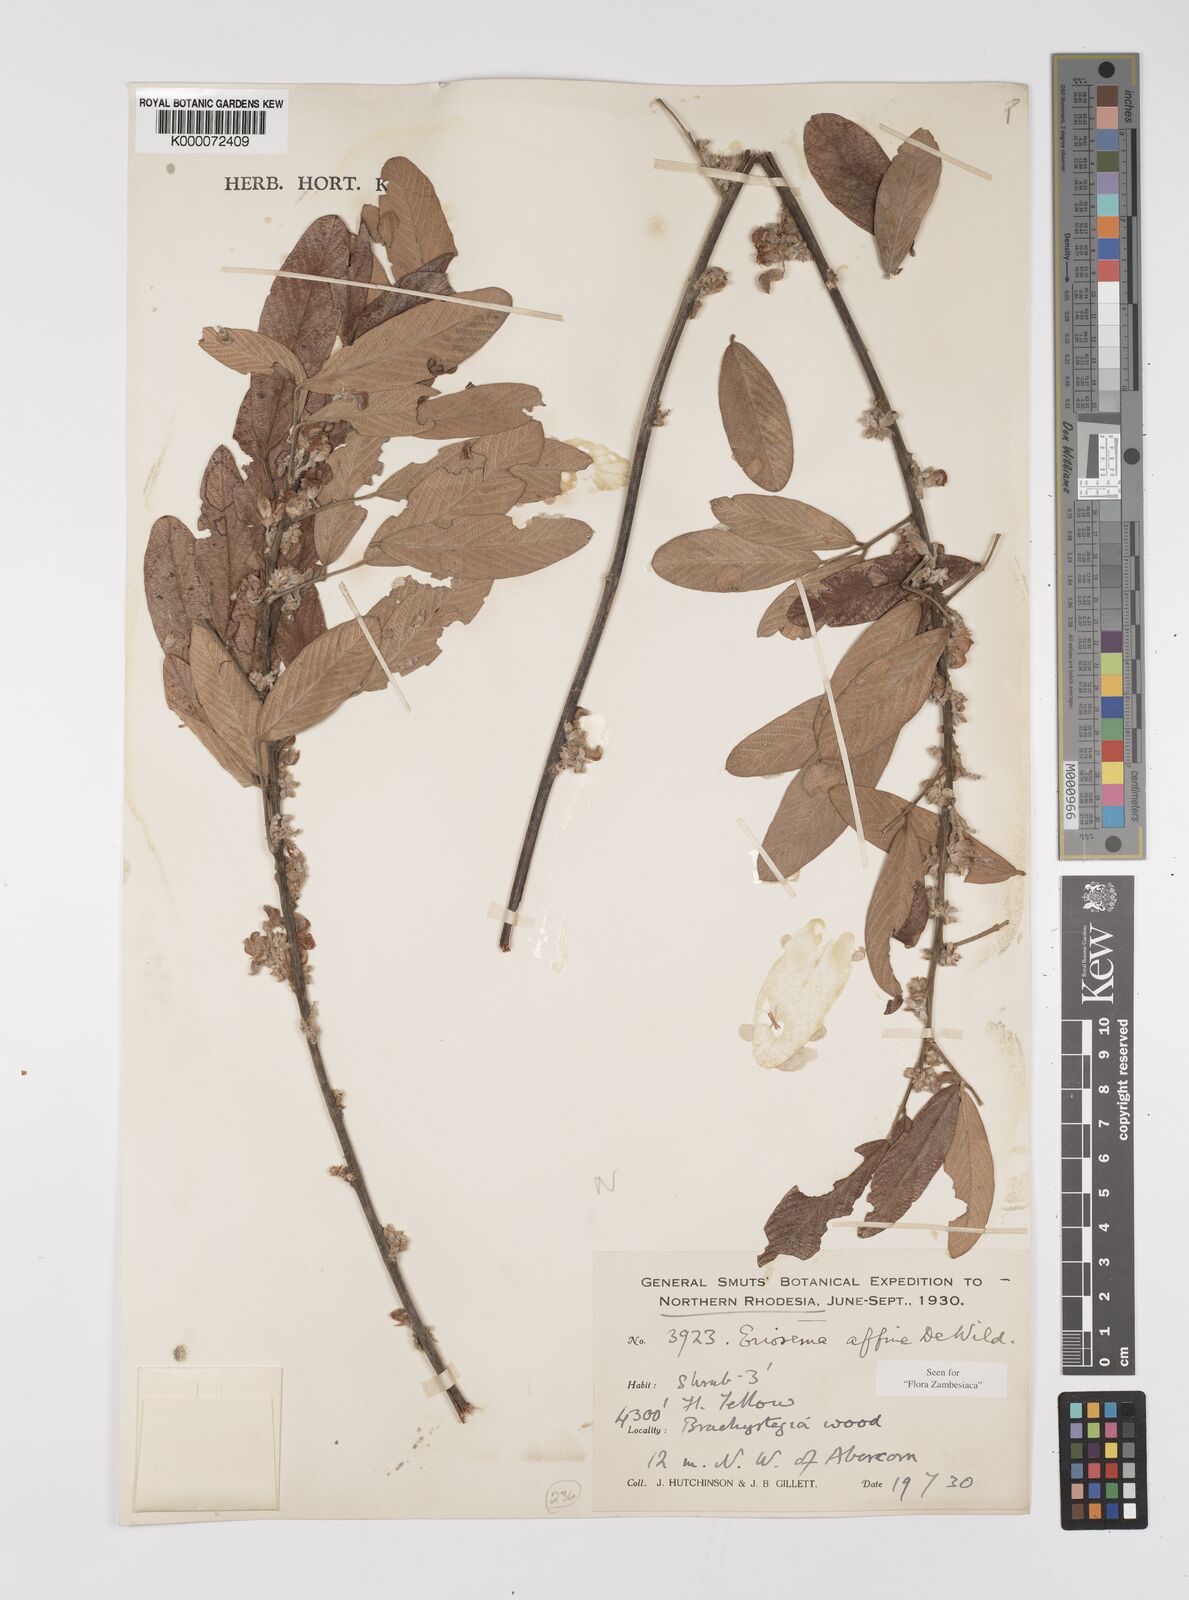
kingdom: Plantae
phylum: Tracheophyta
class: Magnoliopsida
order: Fabales
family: Fabaceae
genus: Eriosema
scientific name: Eriosema affine
